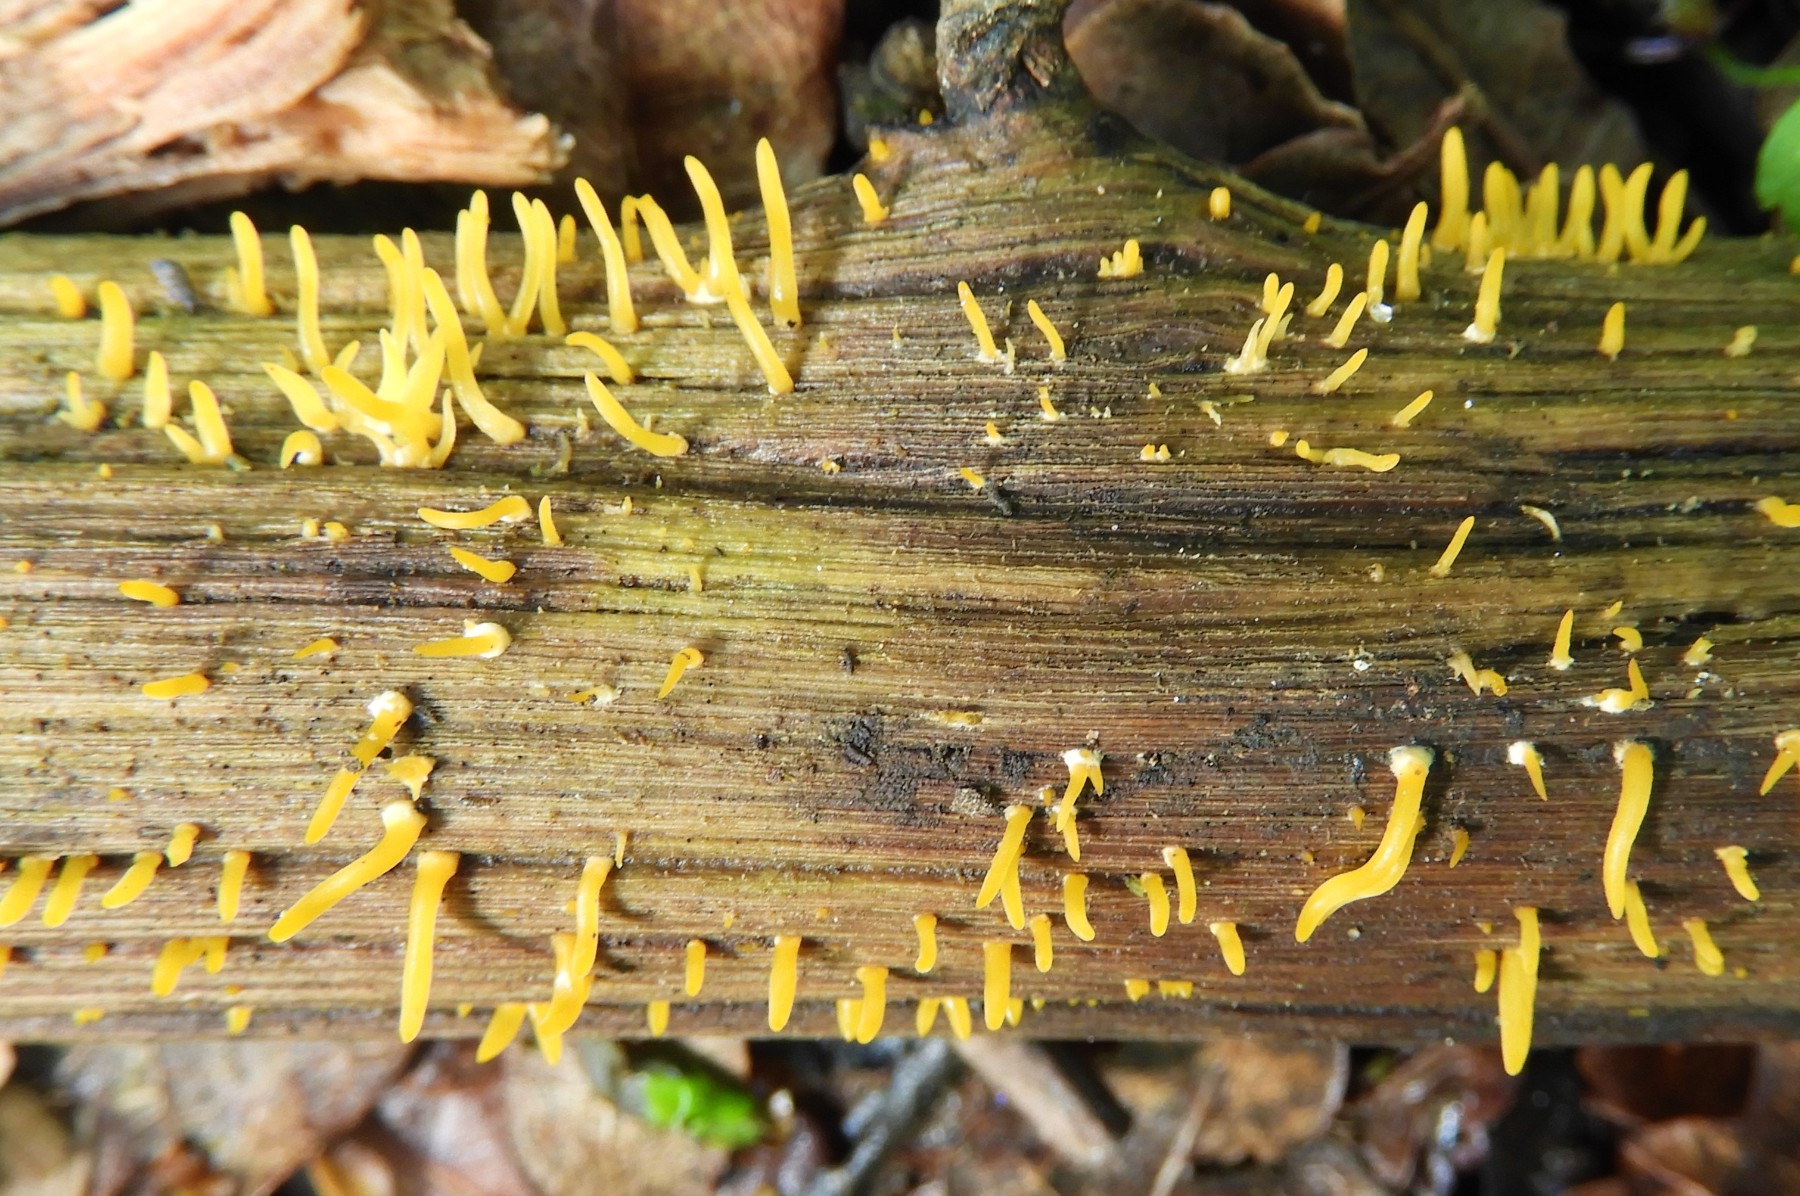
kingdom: Fungi
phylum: Basidiomycota
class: Dacrymycetes
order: Dacrymycetales
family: Dacrymycetaceae
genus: Calocera
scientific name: Calocera cornea
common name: liden guldgaffel
